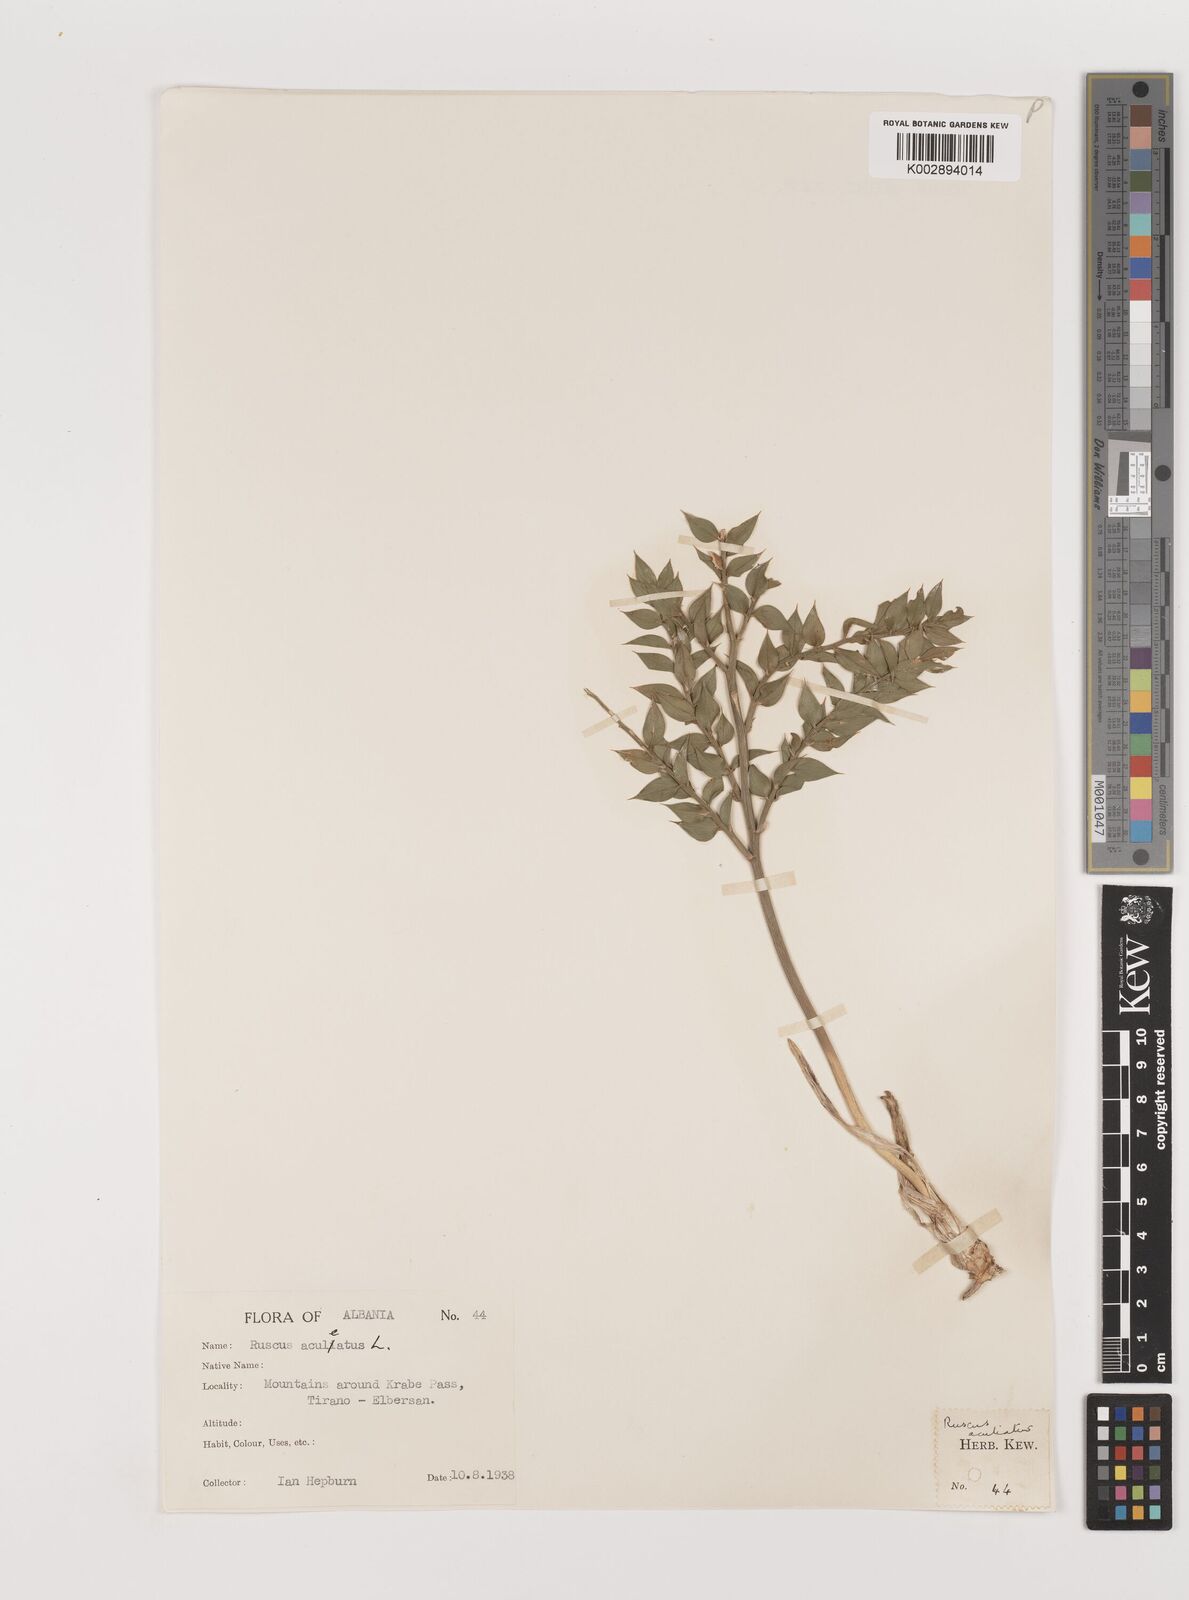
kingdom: Plantae
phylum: Tracheophyta
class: Liliopsida
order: Asparagales
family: Asparagaceae
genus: Ruscus
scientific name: Ruscus aculeatus
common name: Butcher's-broom
